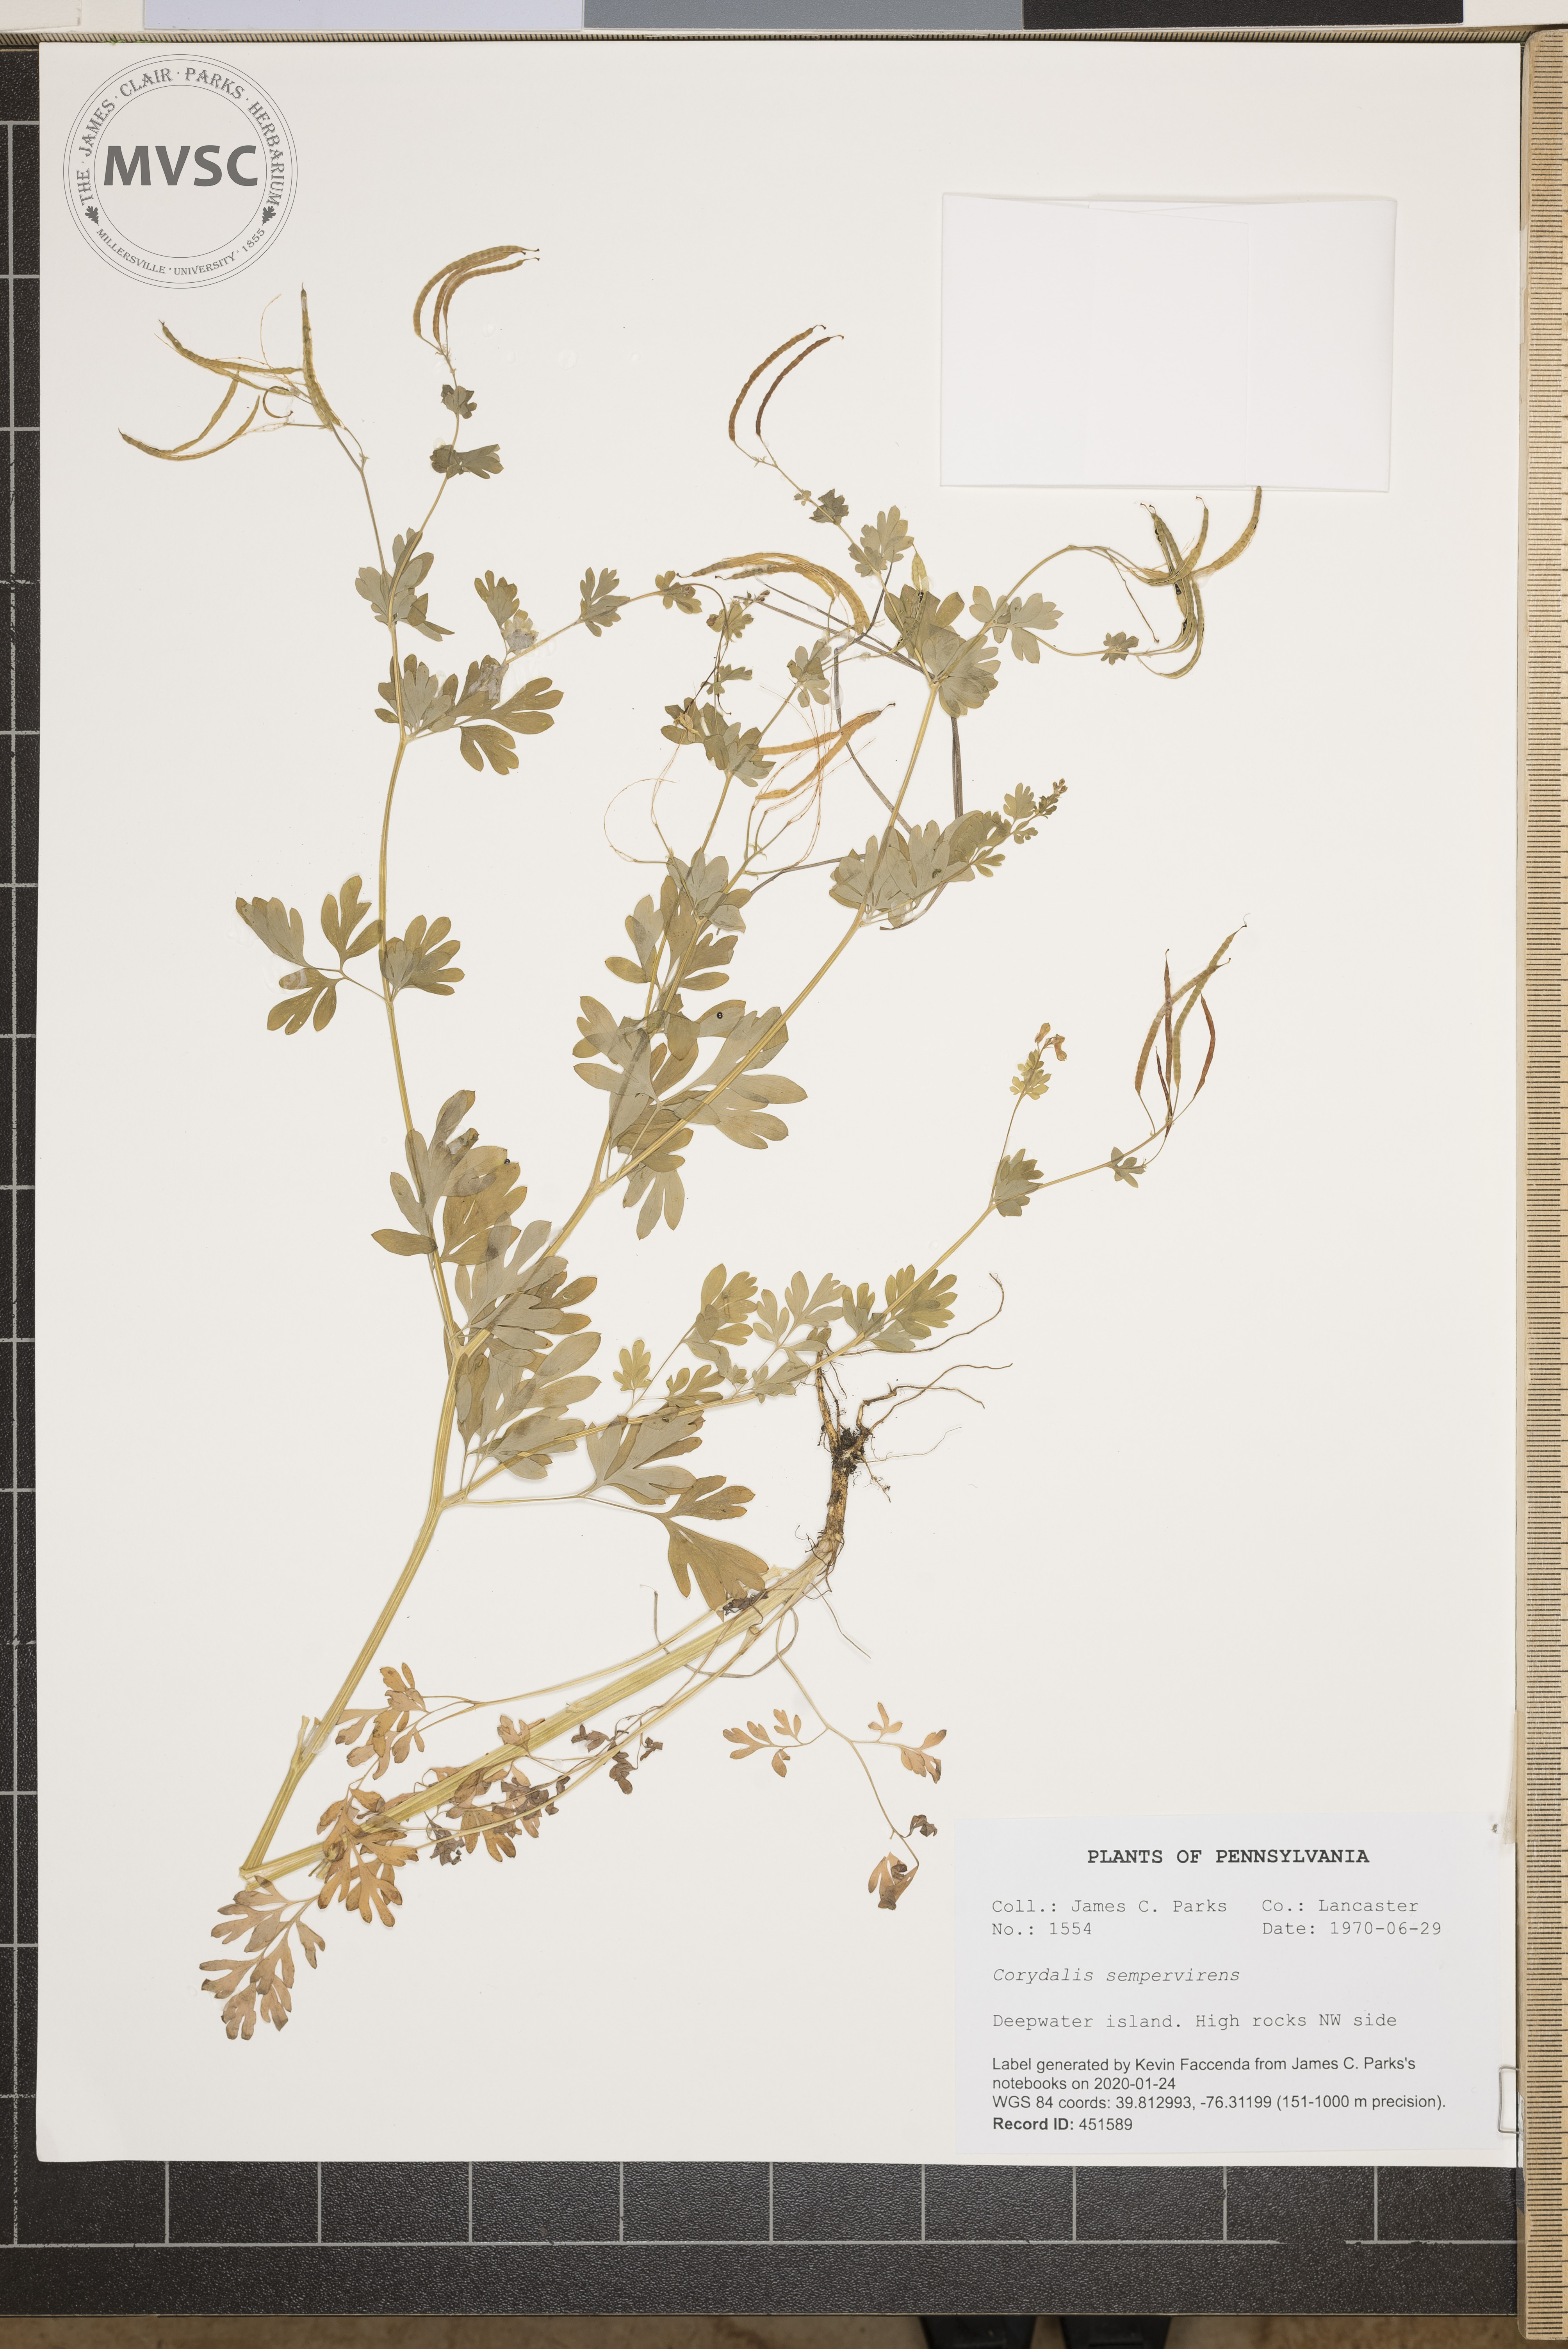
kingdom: Plantae
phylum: Tracheophyta
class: Magnoliopsida
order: Ranunculales
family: Papaveraceae
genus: Capnoides
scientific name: Capnoides sempervirens
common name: Rock harlequin
